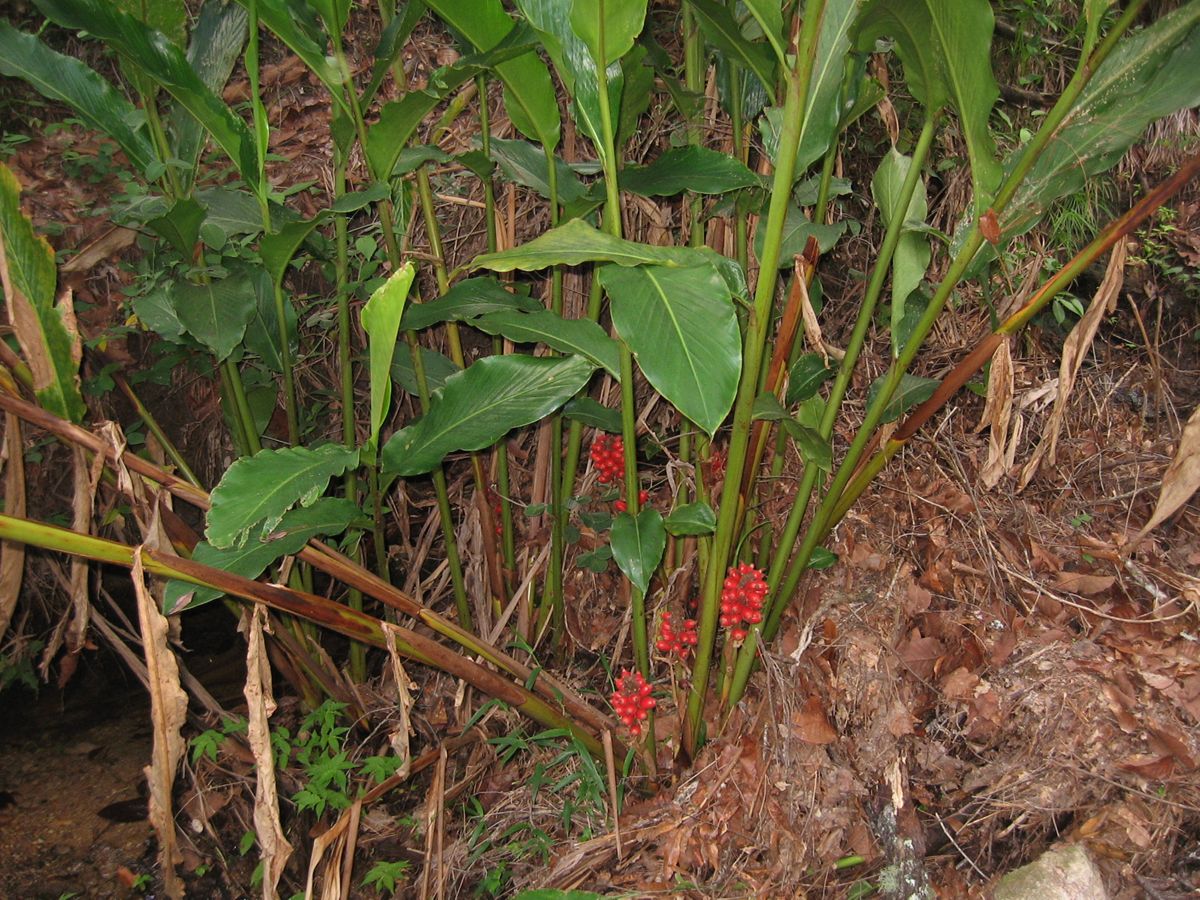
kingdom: Plantae
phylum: Tracheophyta
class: Magnoliopsida
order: Gentianales
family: Apocynaceae
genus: Mandevilla
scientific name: Mandevilla subsagittata
